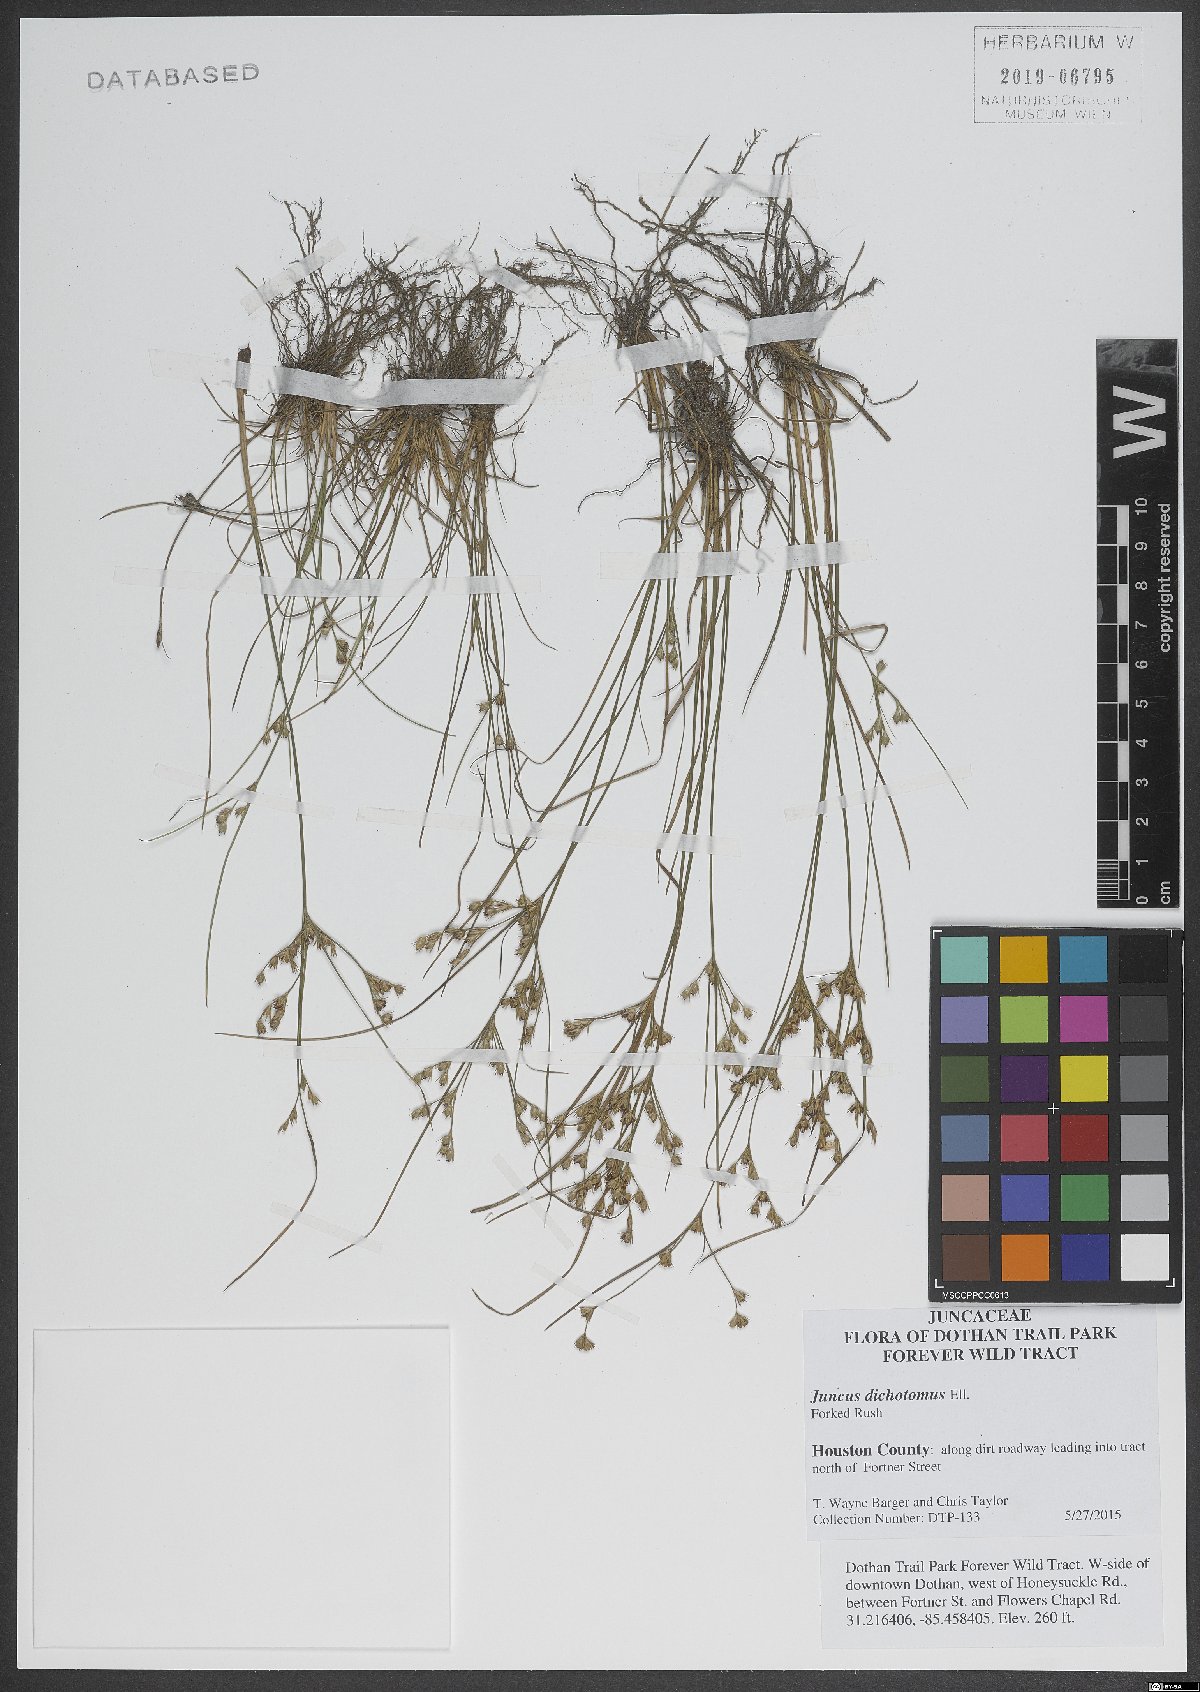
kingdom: Plantae
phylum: Tracheophyta
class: Liliopsida
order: Poales
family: Juncaceae
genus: Juncus
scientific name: Juncus dichotomus
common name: Forked rush
